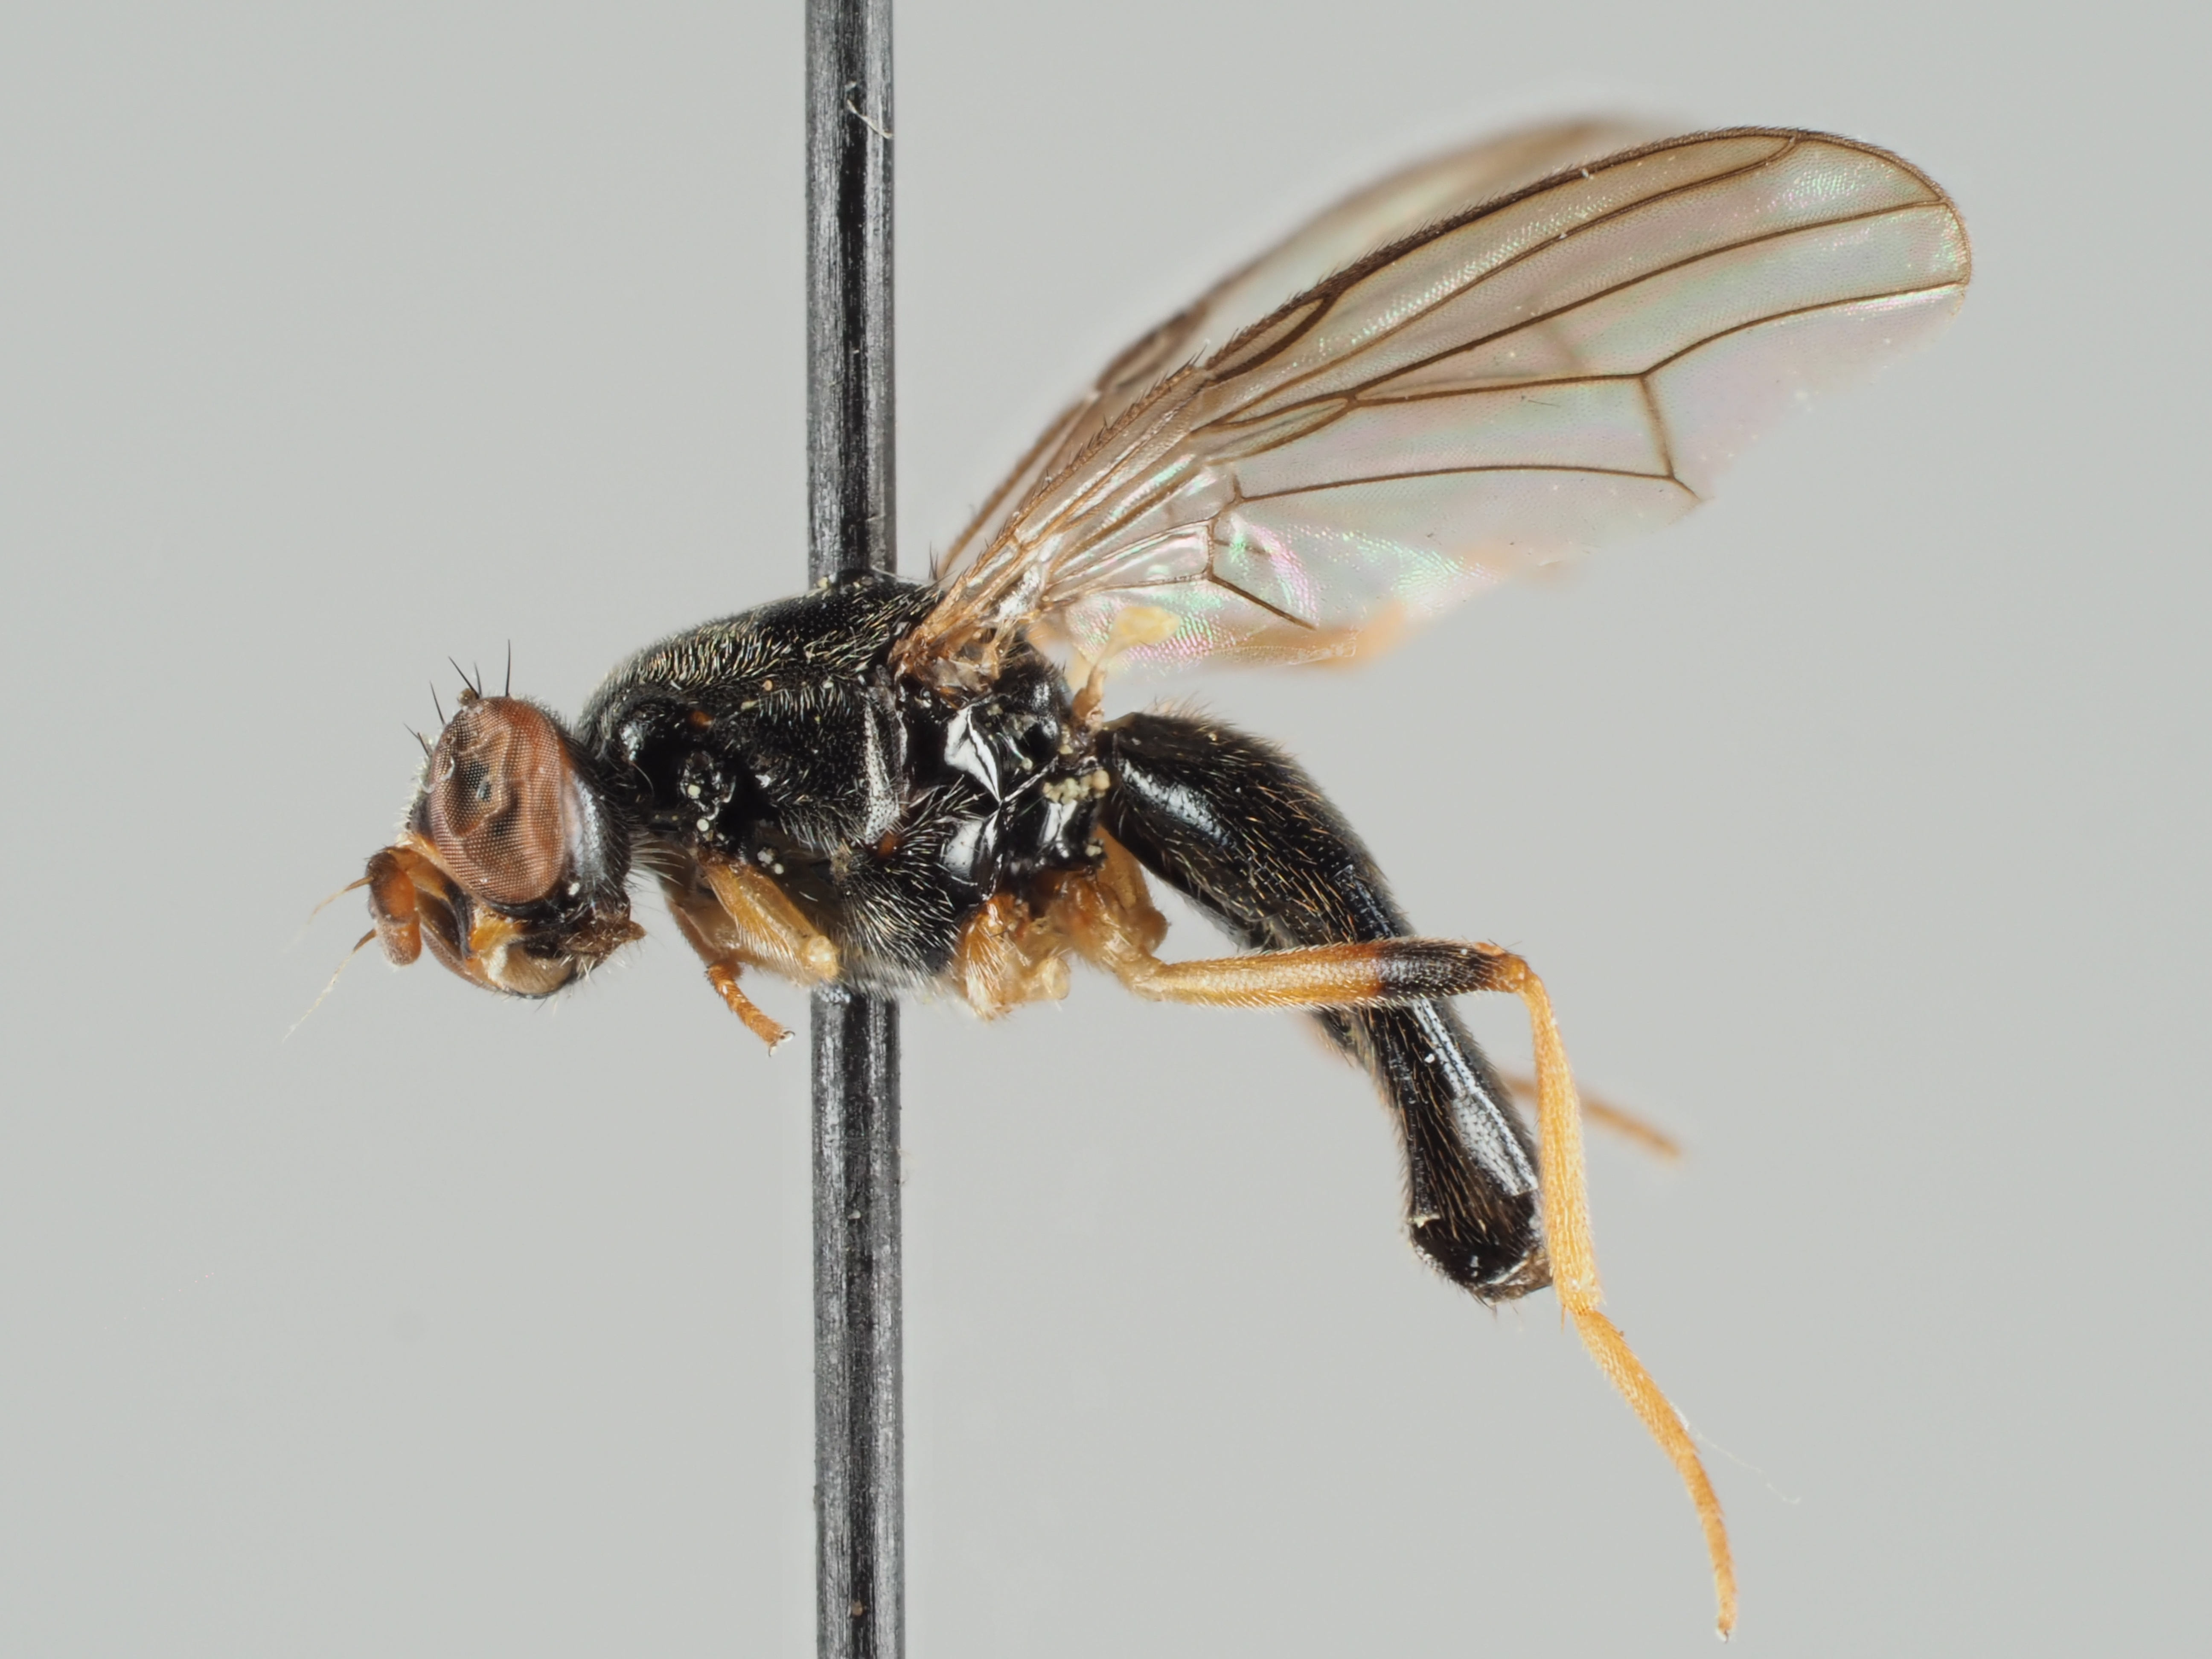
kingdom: Animalia
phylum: Arthropoda
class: Insecta
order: Diptera
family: Psilidae
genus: Chyliza
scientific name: Chyliza annulipes
